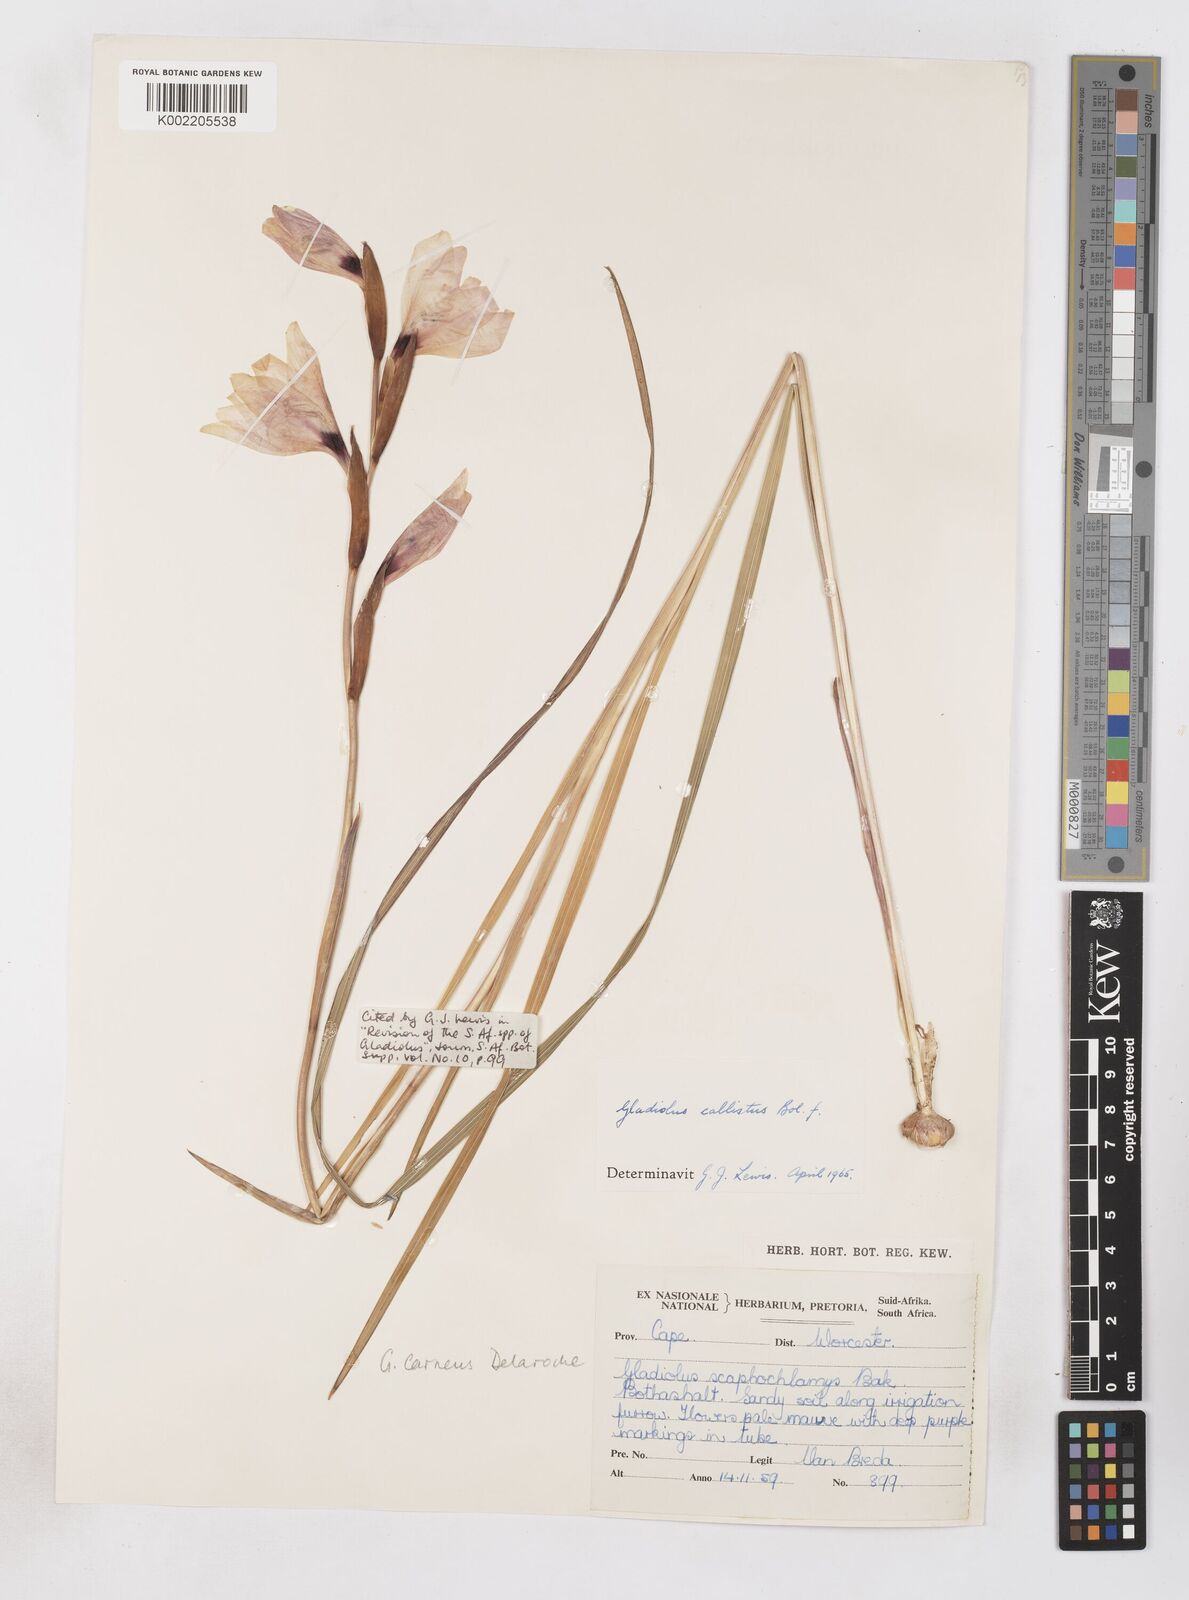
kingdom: Plantae
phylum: Tracheophyta
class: Liliopsida
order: Asparagales
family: Iridaceae
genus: Gladiolus
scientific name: Gladiolus carneus
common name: Painted-lady
